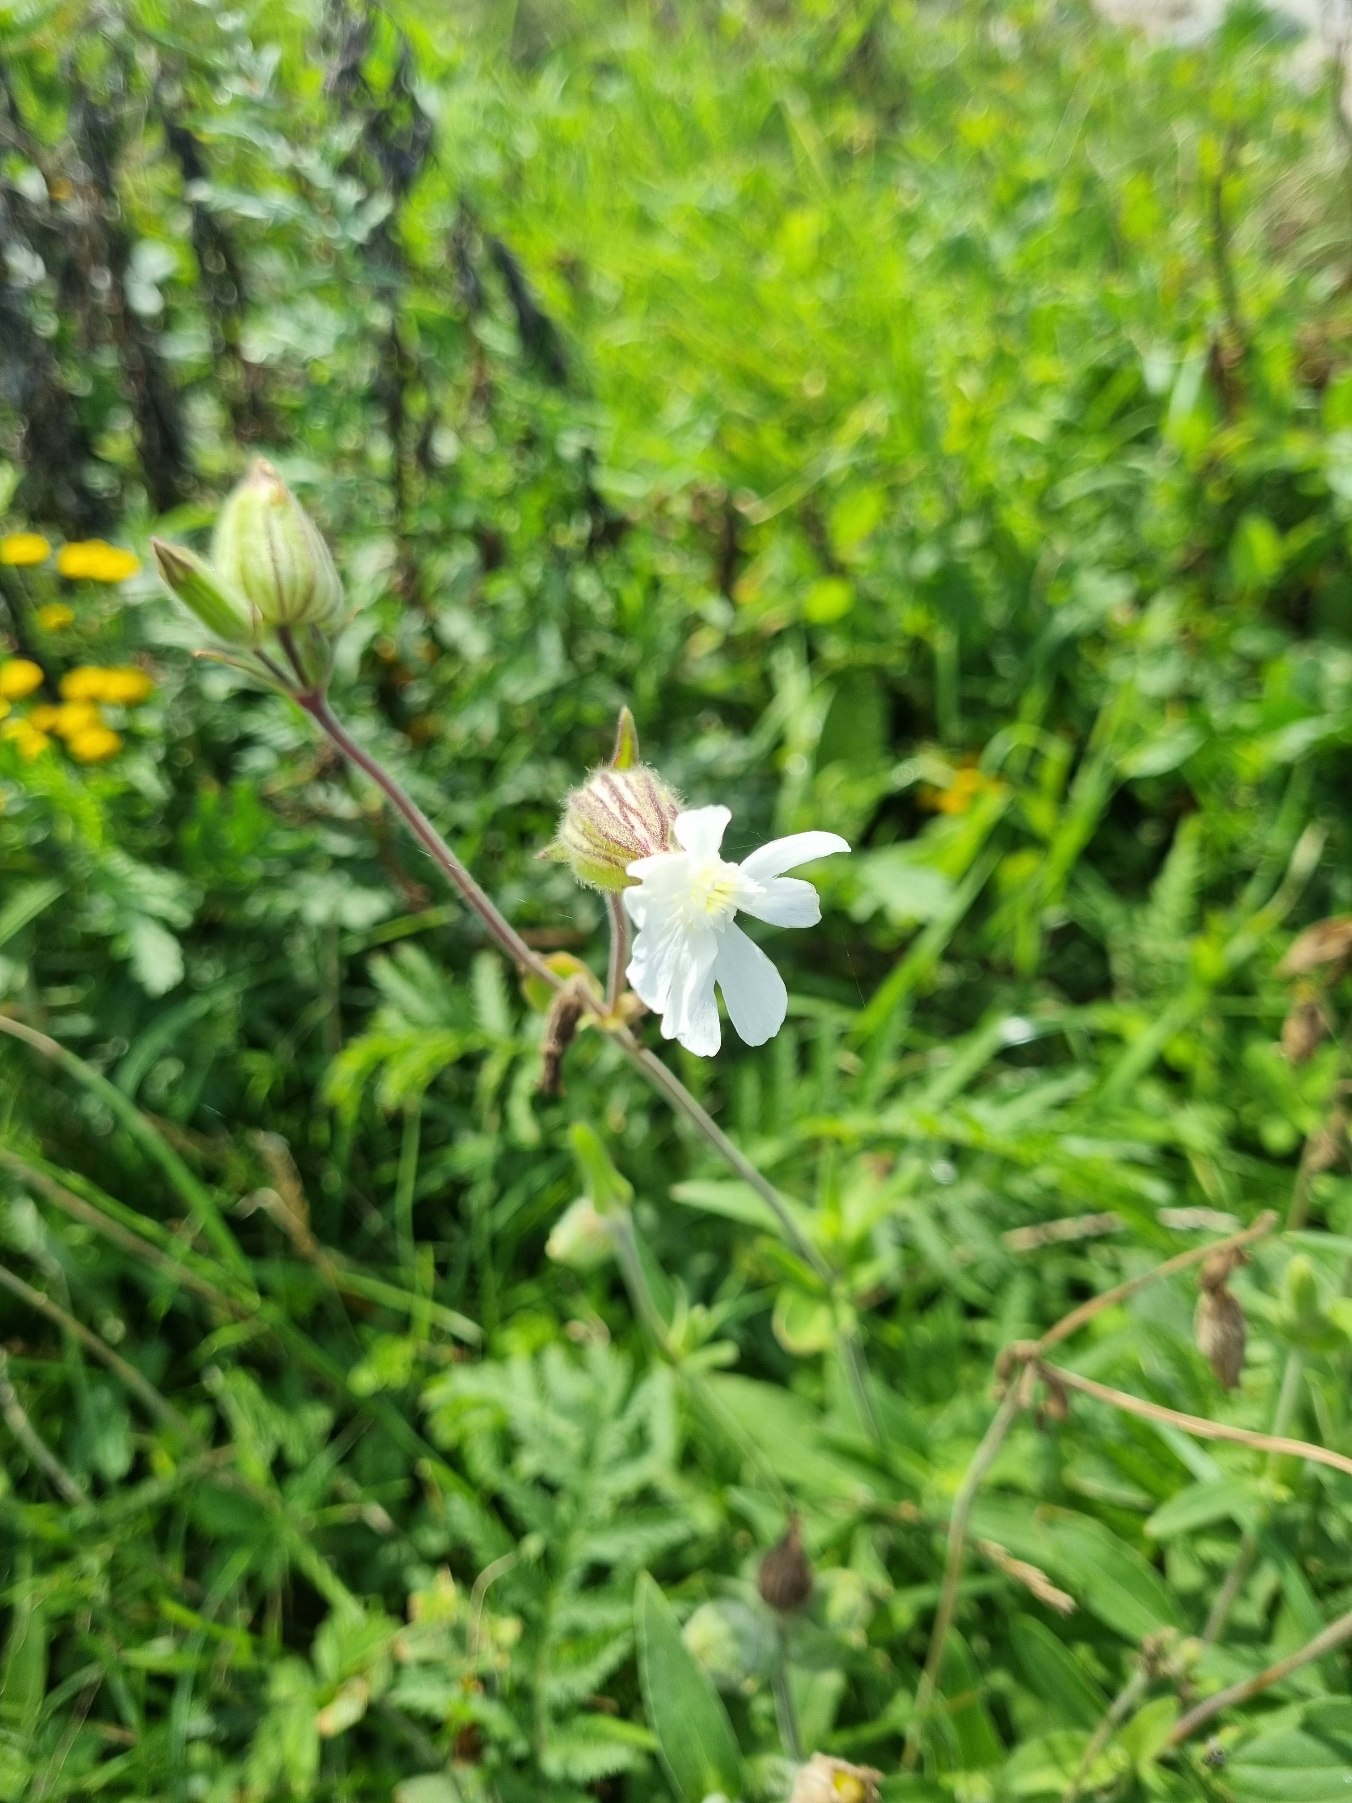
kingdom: Plantae
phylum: Tracheophyta
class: Magnoliopsida
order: Caryophyllales
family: Caryophyllaceae
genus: Silene
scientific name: Silene latifolia
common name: Aftenpragtstjerne
